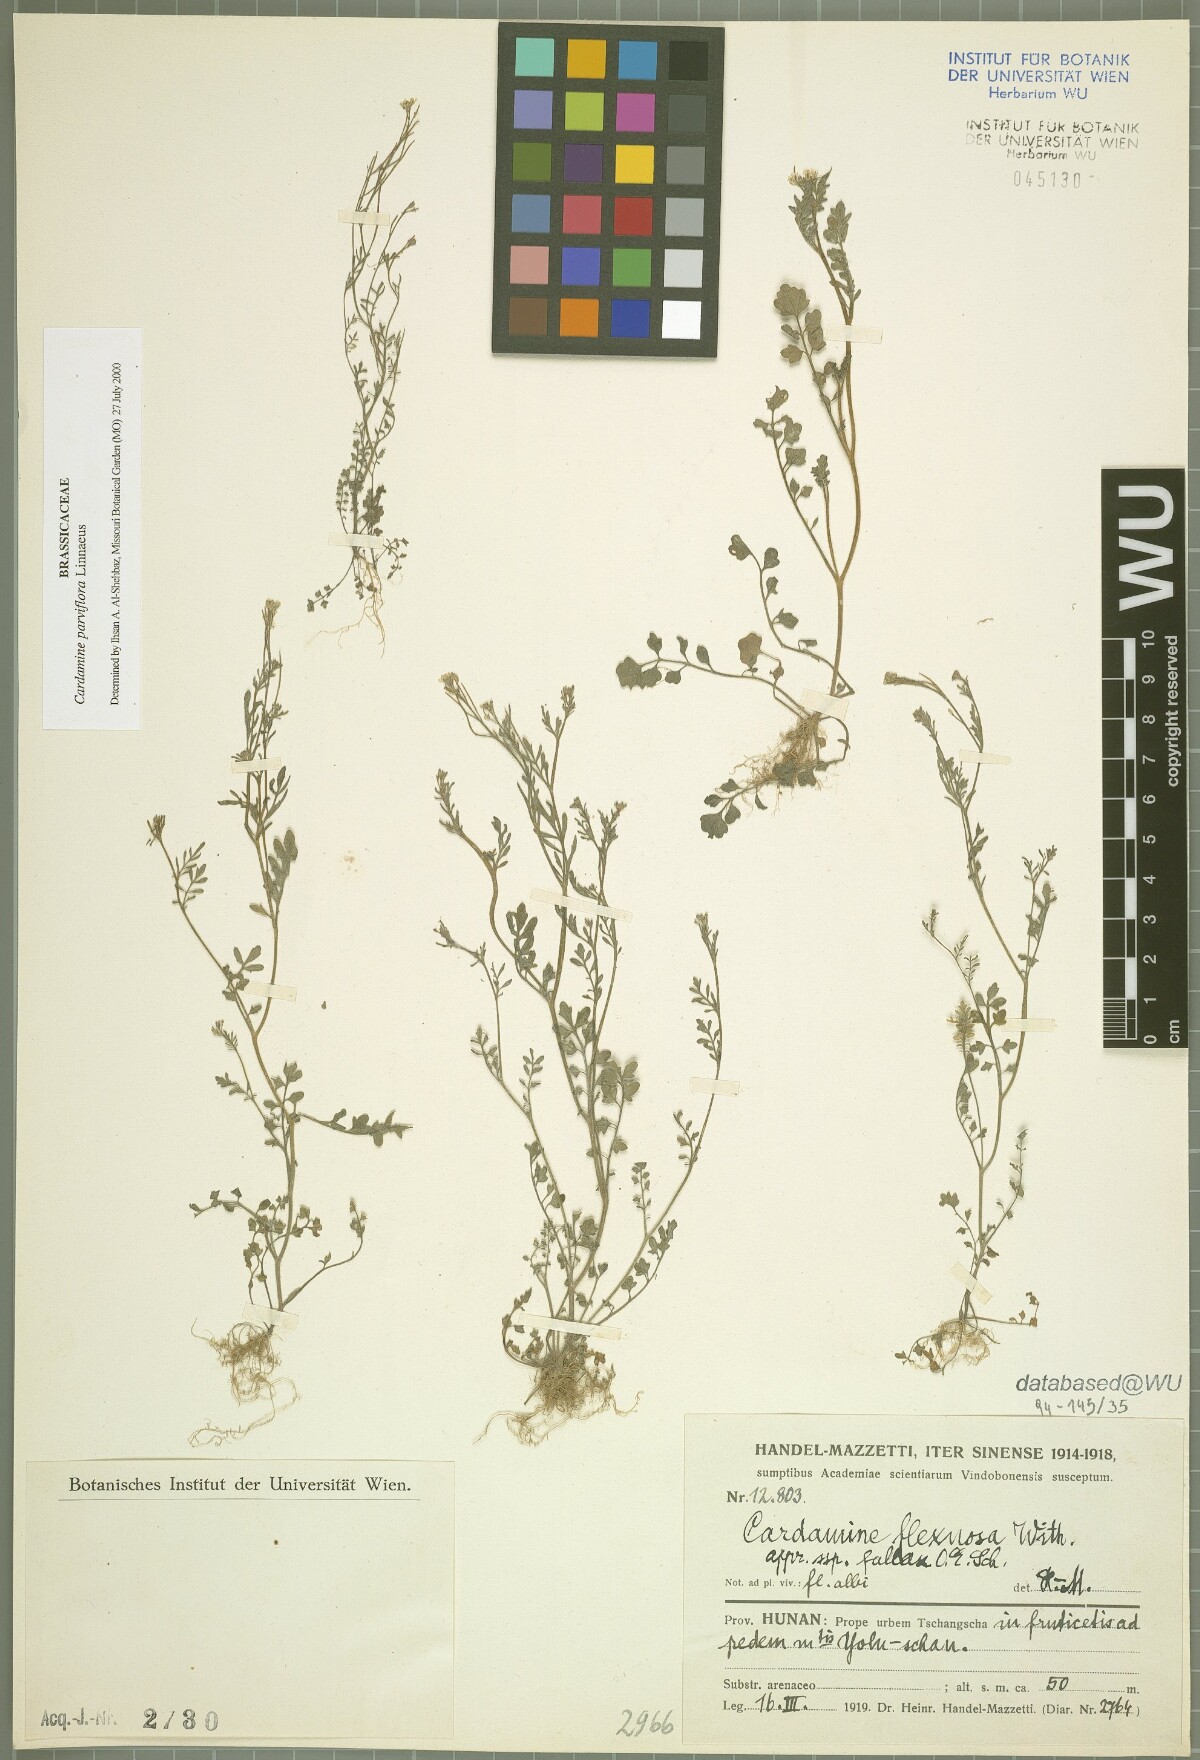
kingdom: Plantae
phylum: Tracheophyta
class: Magnoliopsida
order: Brassicales
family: Brassicaceae
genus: Cardamine
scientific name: Cardamine parviflora
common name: Sand bittercress
